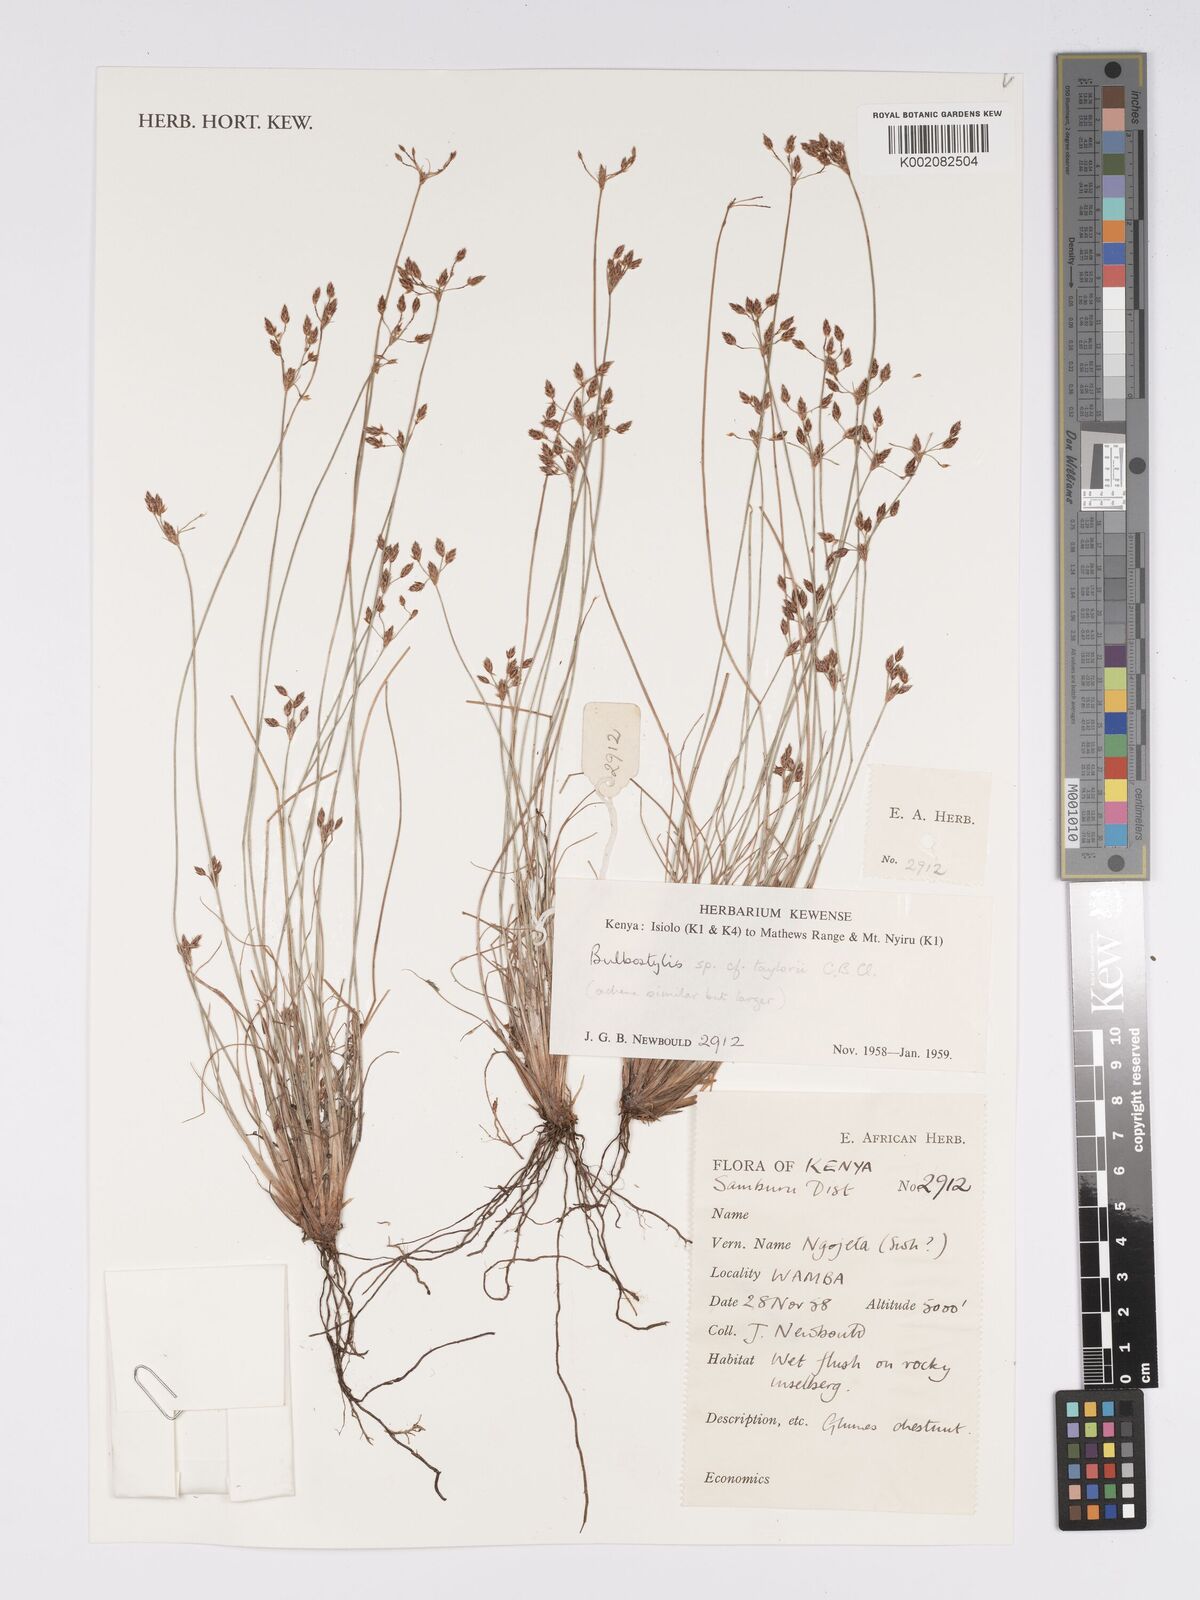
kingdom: Plantae
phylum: Tracheophyta
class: Liliopsida
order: Poales
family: Cyperaceae
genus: Bulbostylis
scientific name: Bulbostylis taylorii
